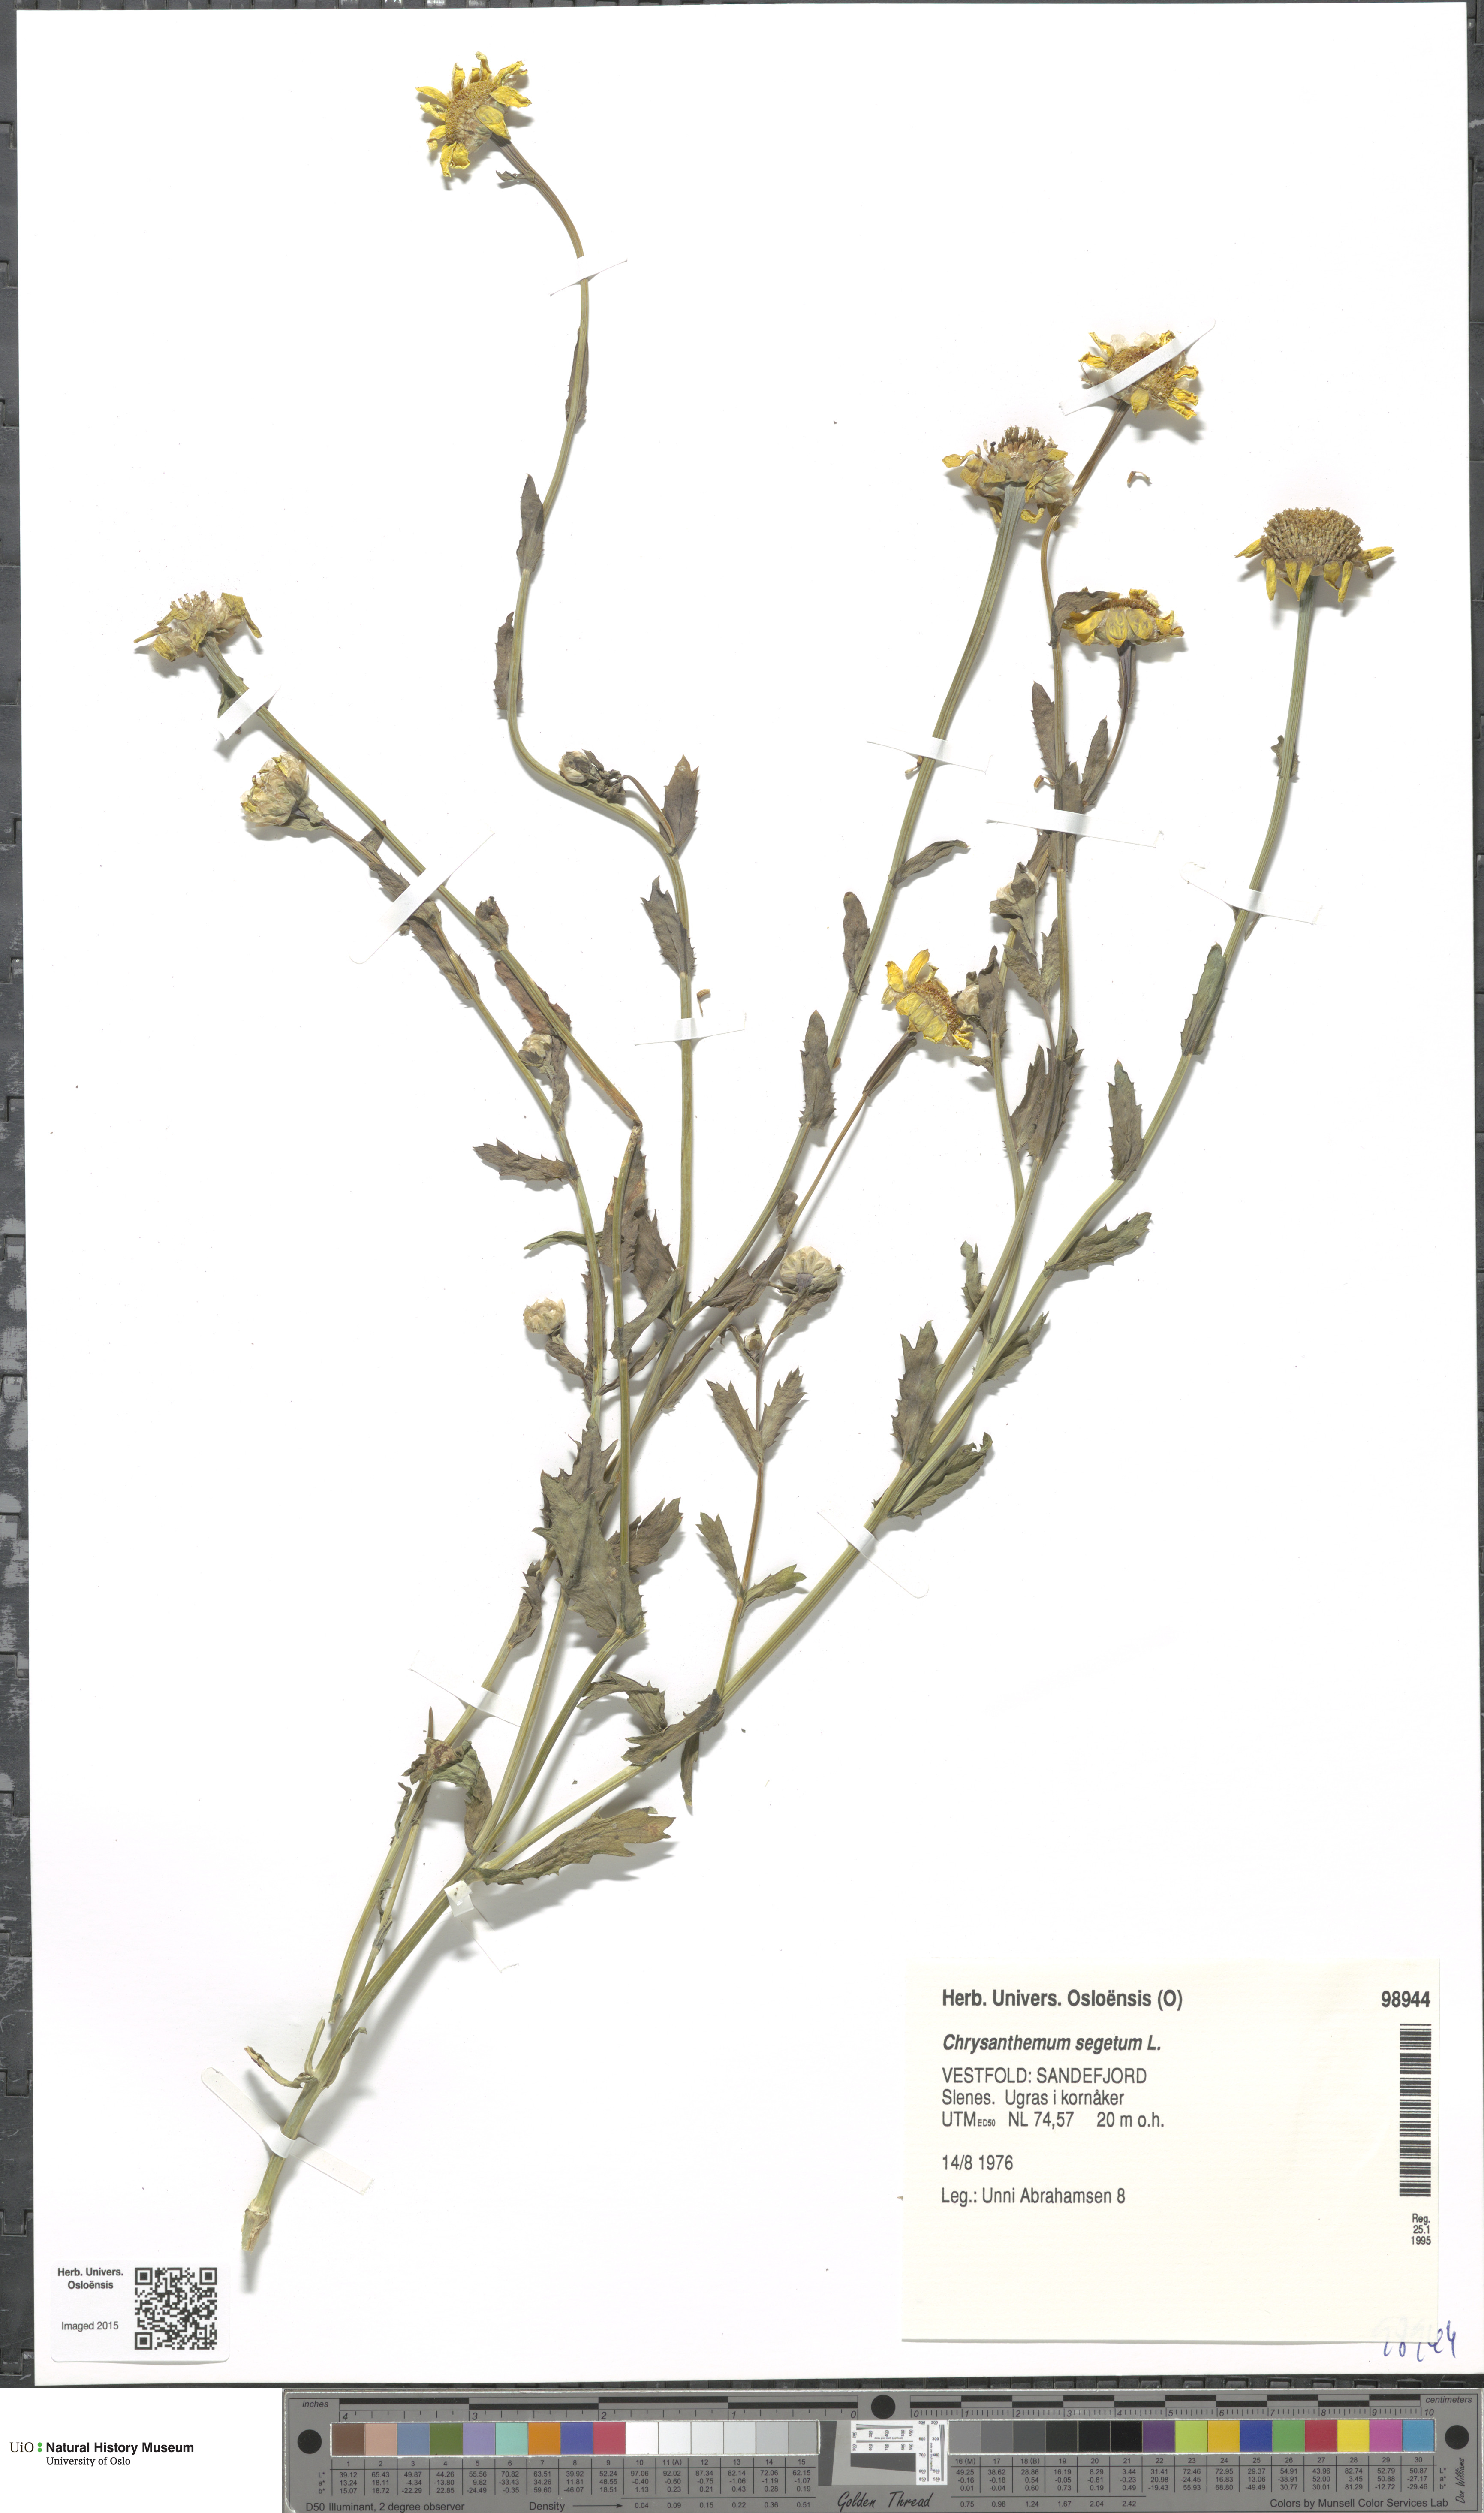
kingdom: Plantae
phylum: Tracheophyta
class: Magnoliopsida
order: Asterales
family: Asteraceae
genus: Glebionis
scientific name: Glebionis segetum
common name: Corndaisy
